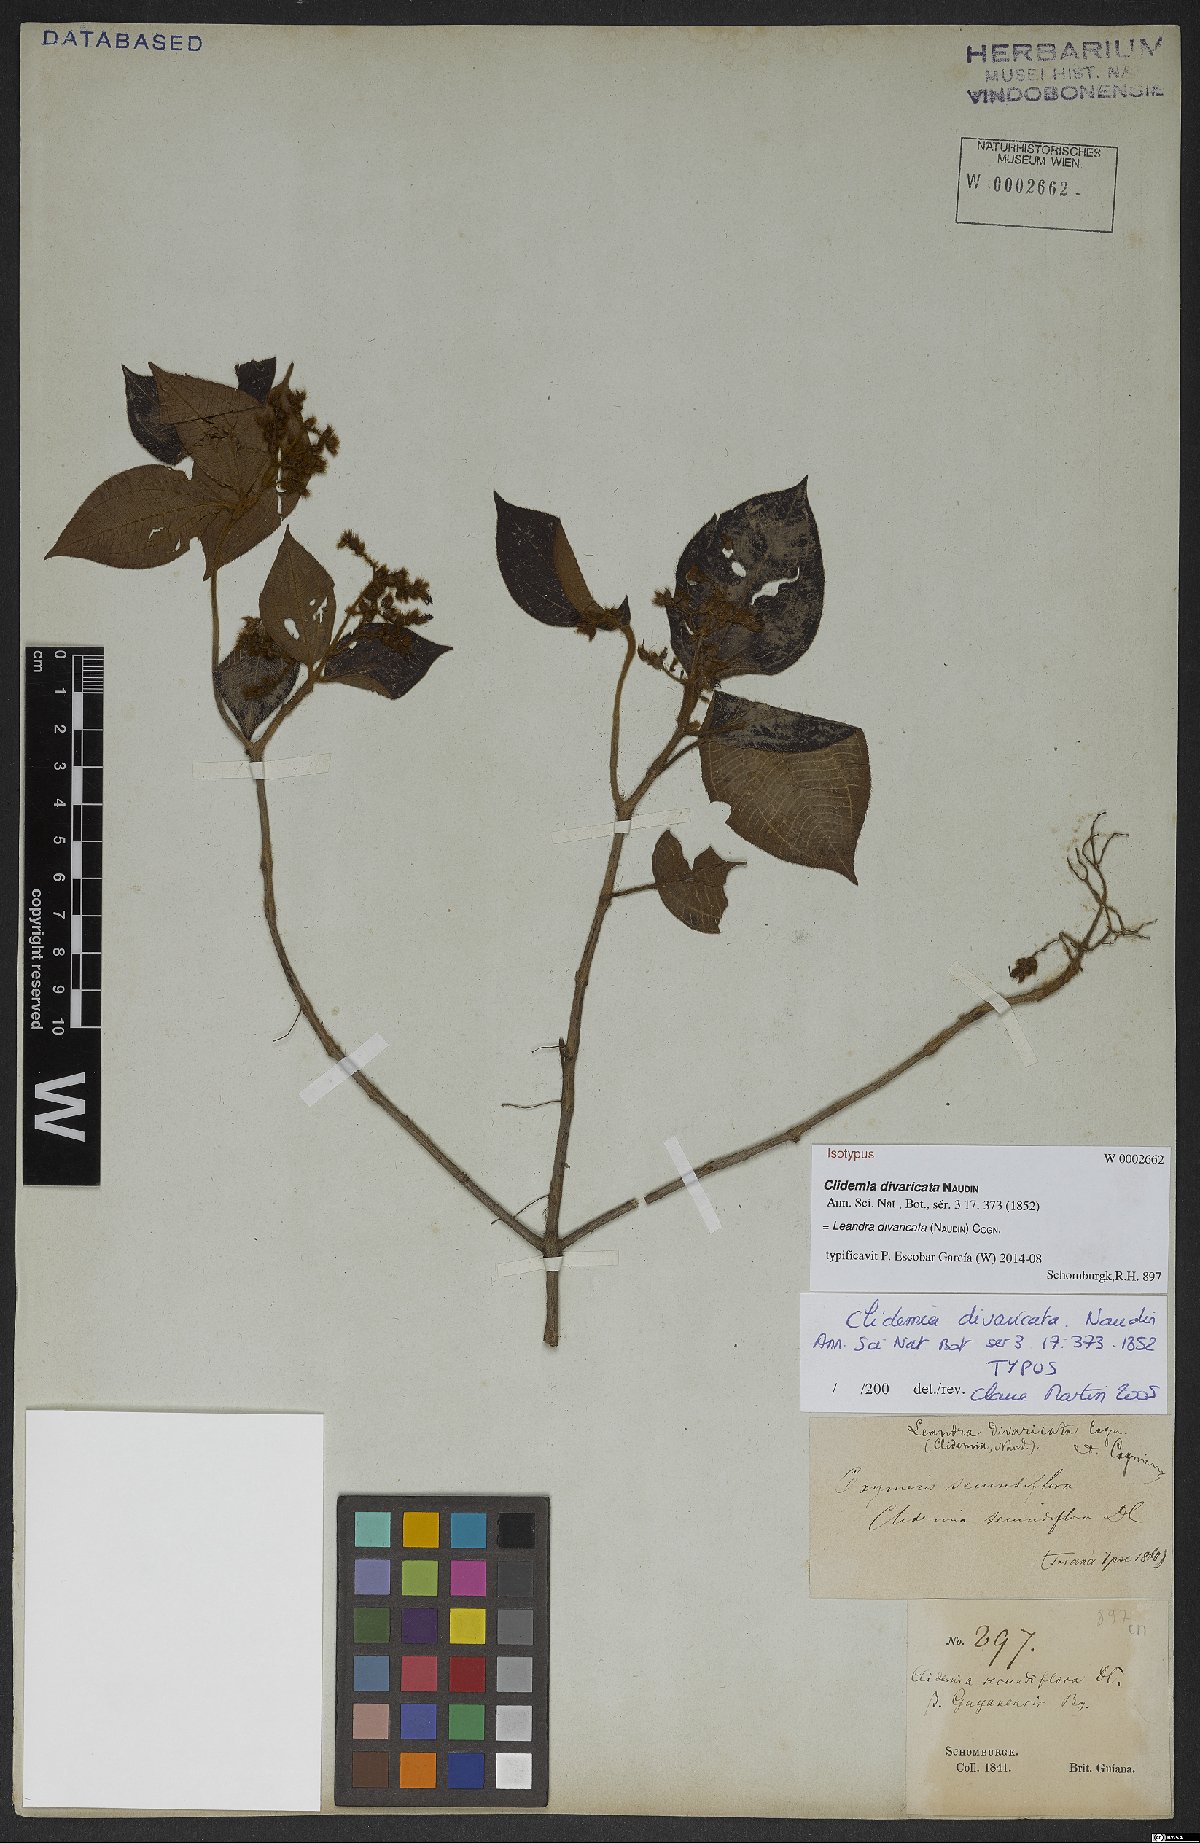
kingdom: Plantae
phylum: Tracheophyta
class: Magnoliopsida
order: Myrtales
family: Melastomataceae
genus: Miconia
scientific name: Miconia secundivaricata
